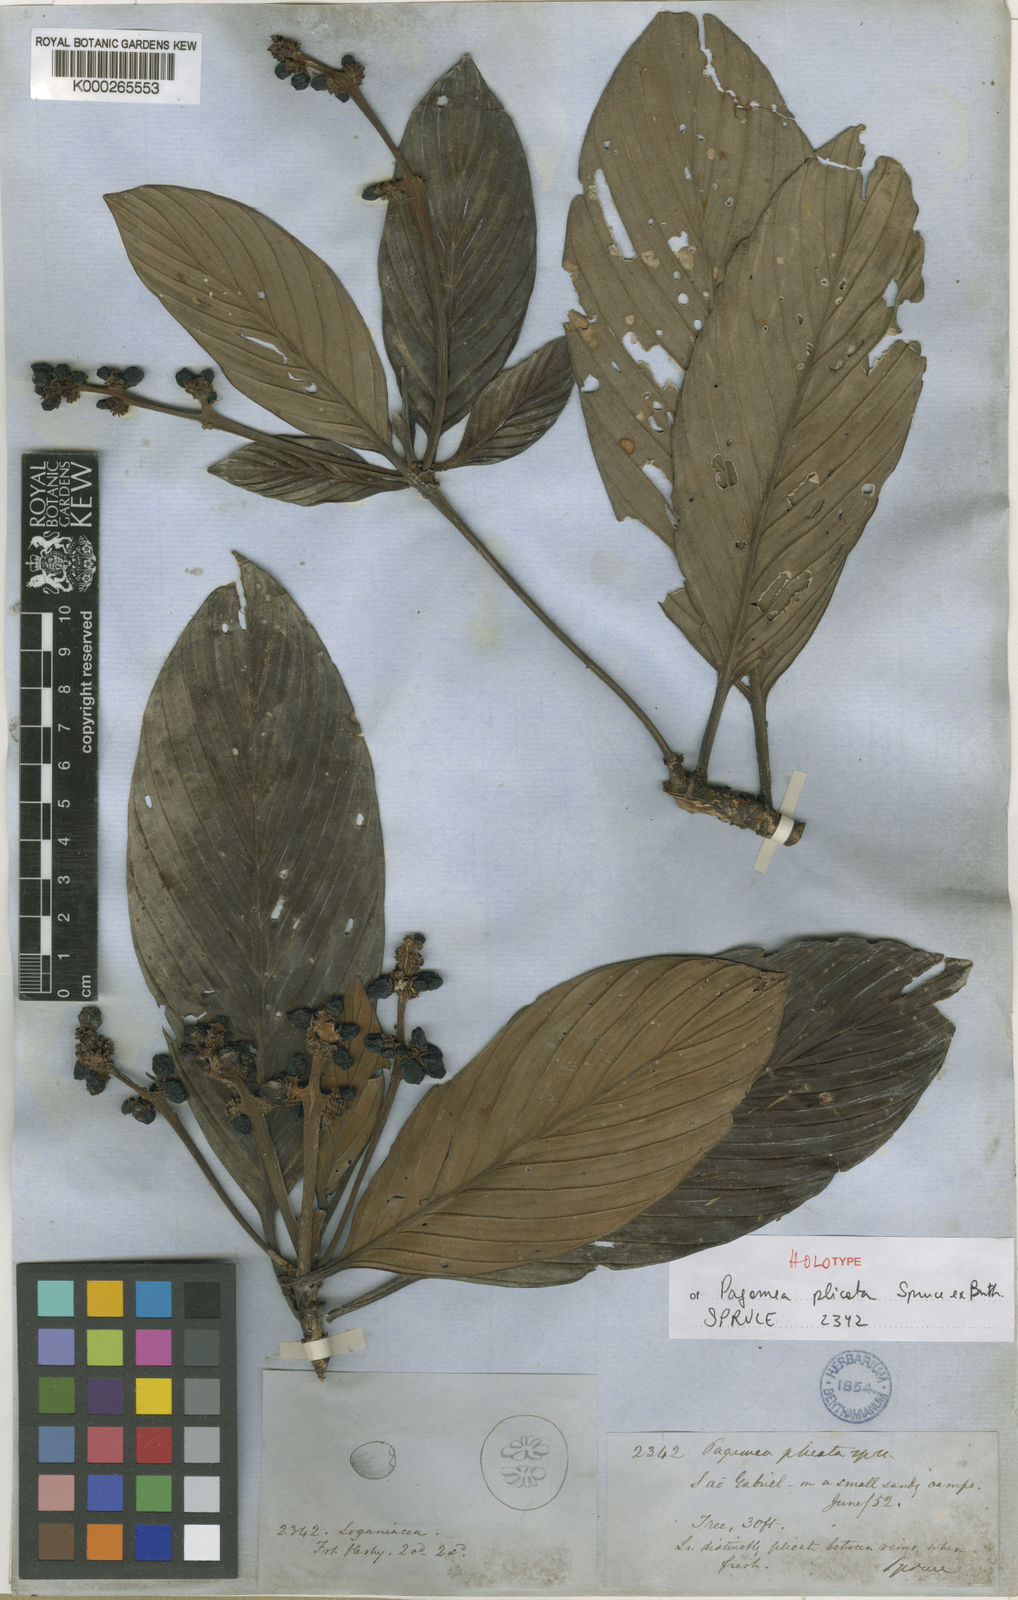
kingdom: Plantae
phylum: Tracheophyta
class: Magnoliopsida
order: Gentianales
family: Rubiaceae
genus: Pagamea
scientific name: Pagamea plicata
